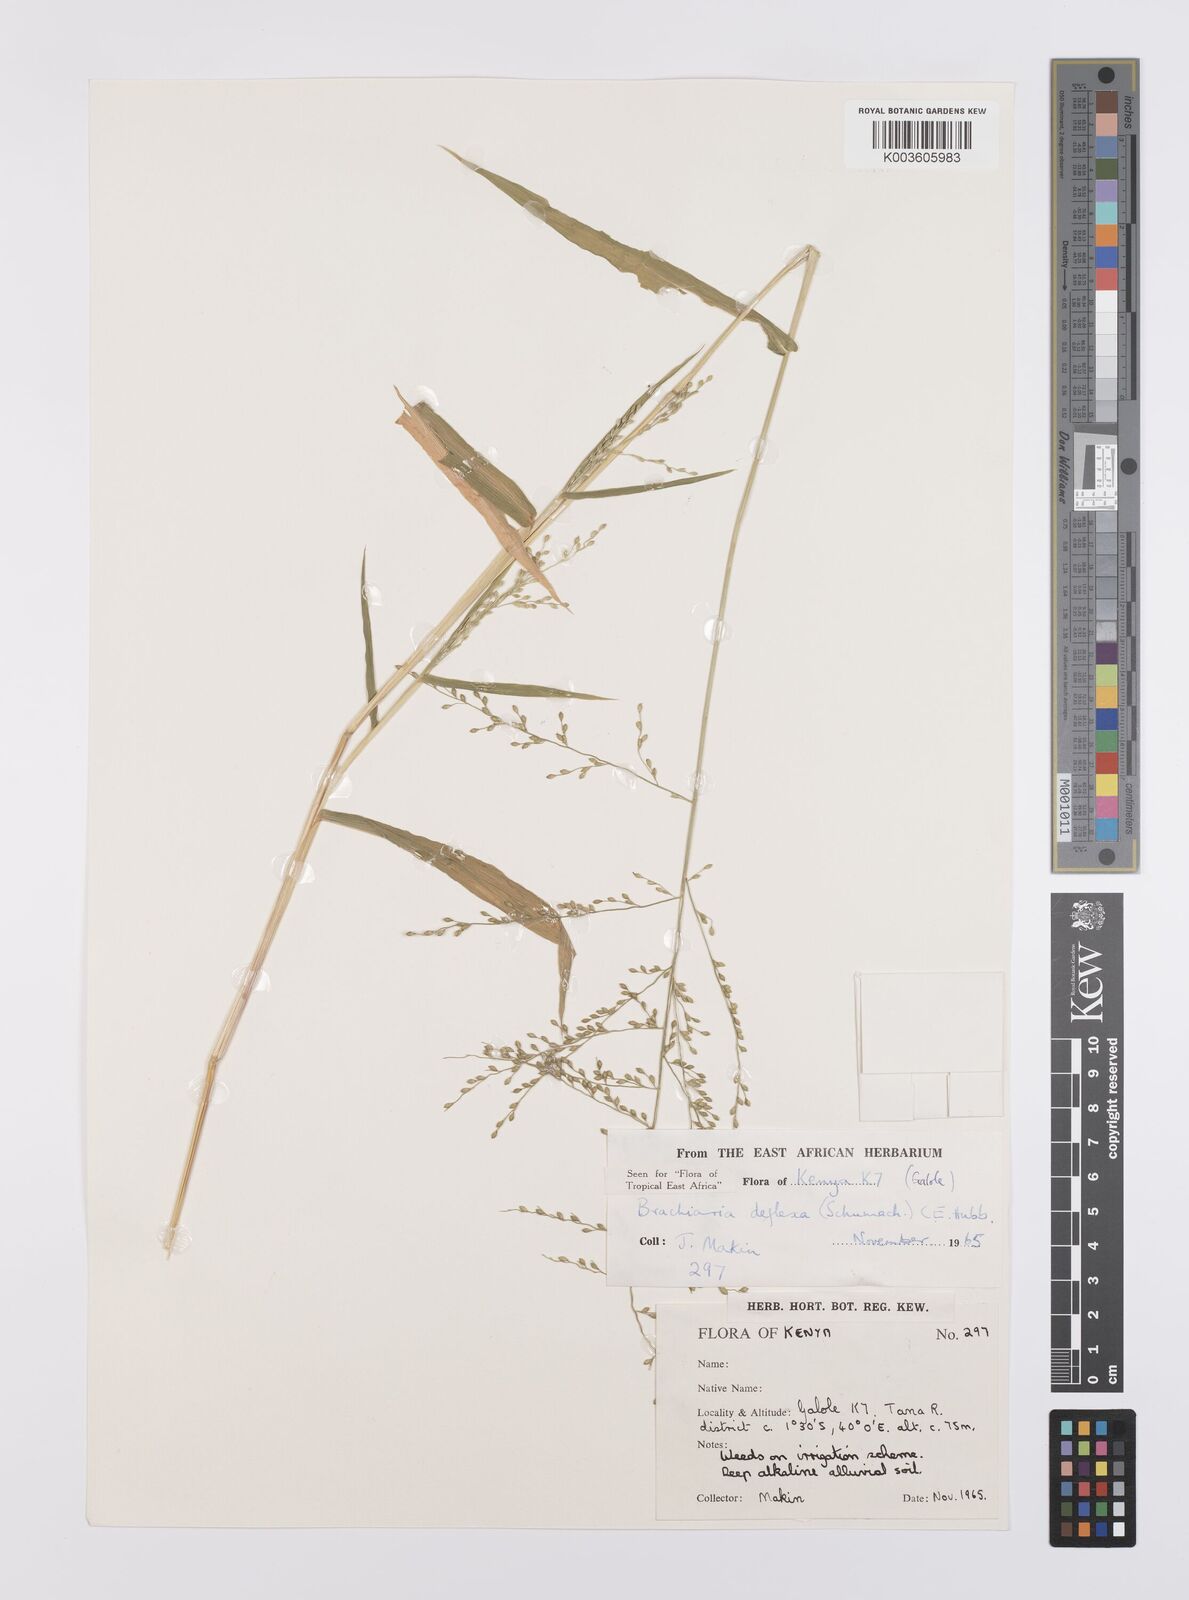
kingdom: Plantae
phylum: Tracheophyta
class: Liliopsida
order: Poales
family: Poaceae
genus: Urochloa
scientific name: Urochloa deflexa
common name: Guinea millet
